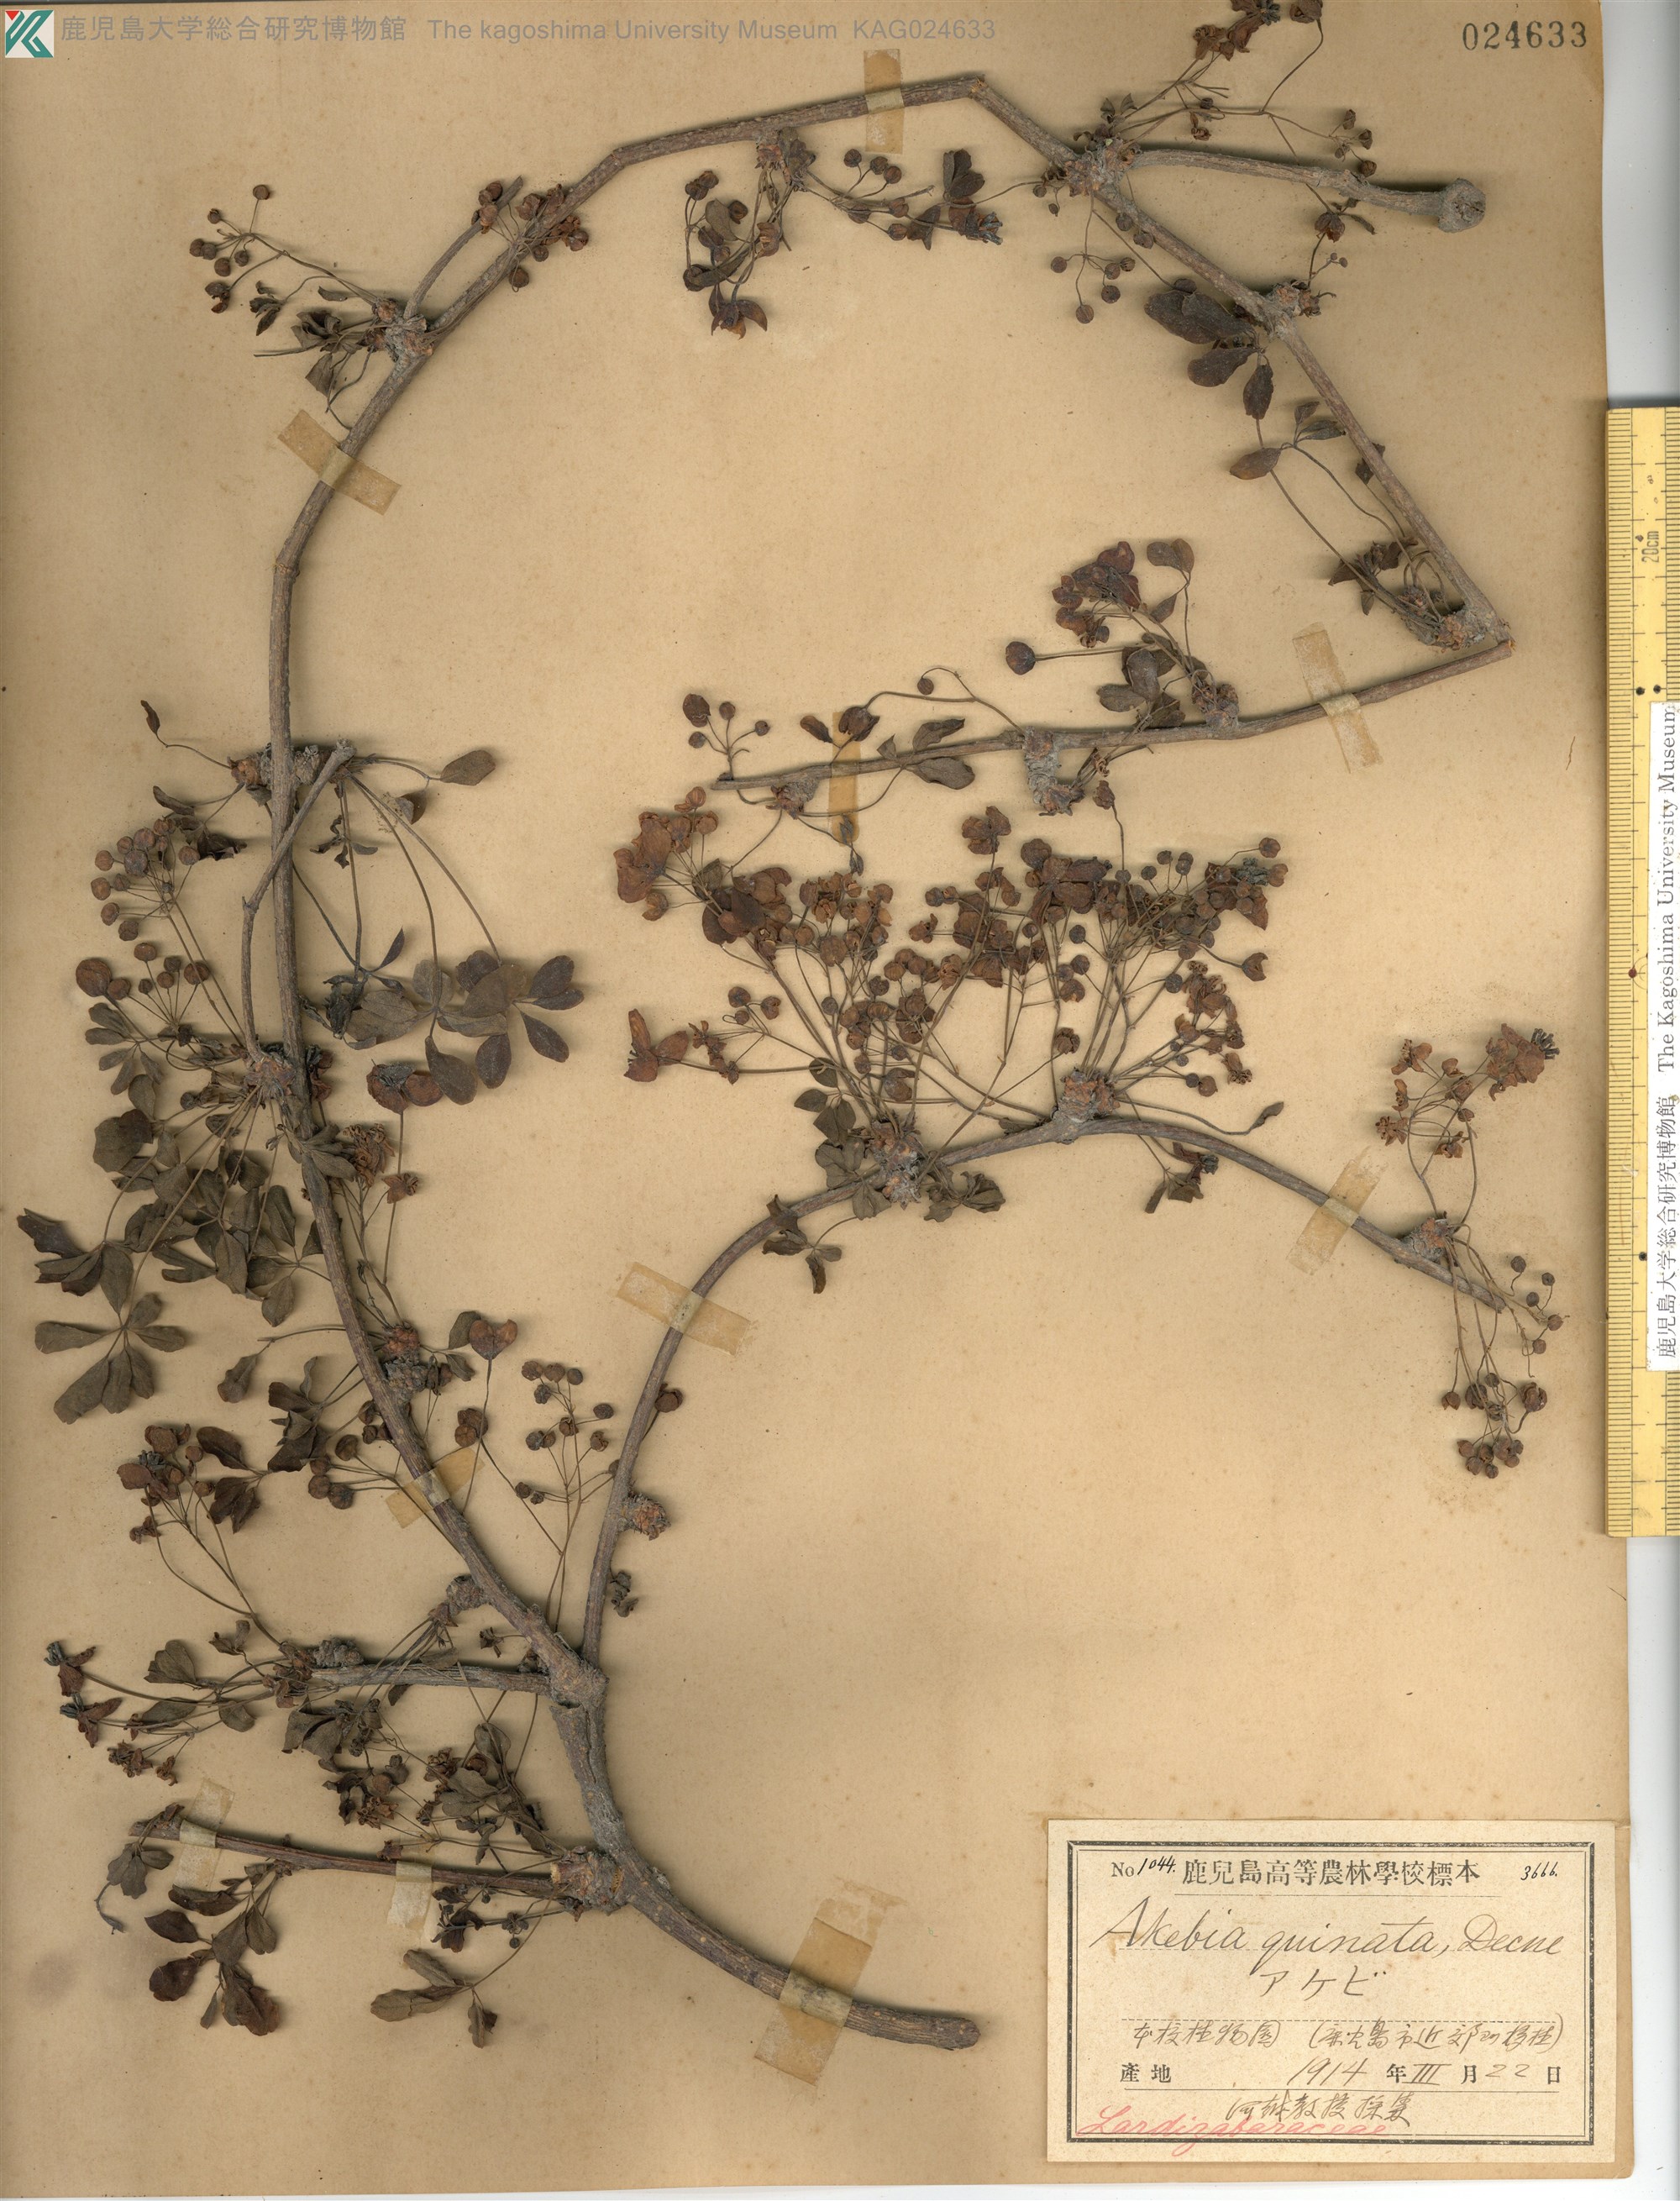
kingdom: Plantae
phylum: Tracheophyta
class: Magnoliopsida
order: Ranunculales
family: Lardizabalaceae
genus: Akebia
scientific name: Akebia quinata
